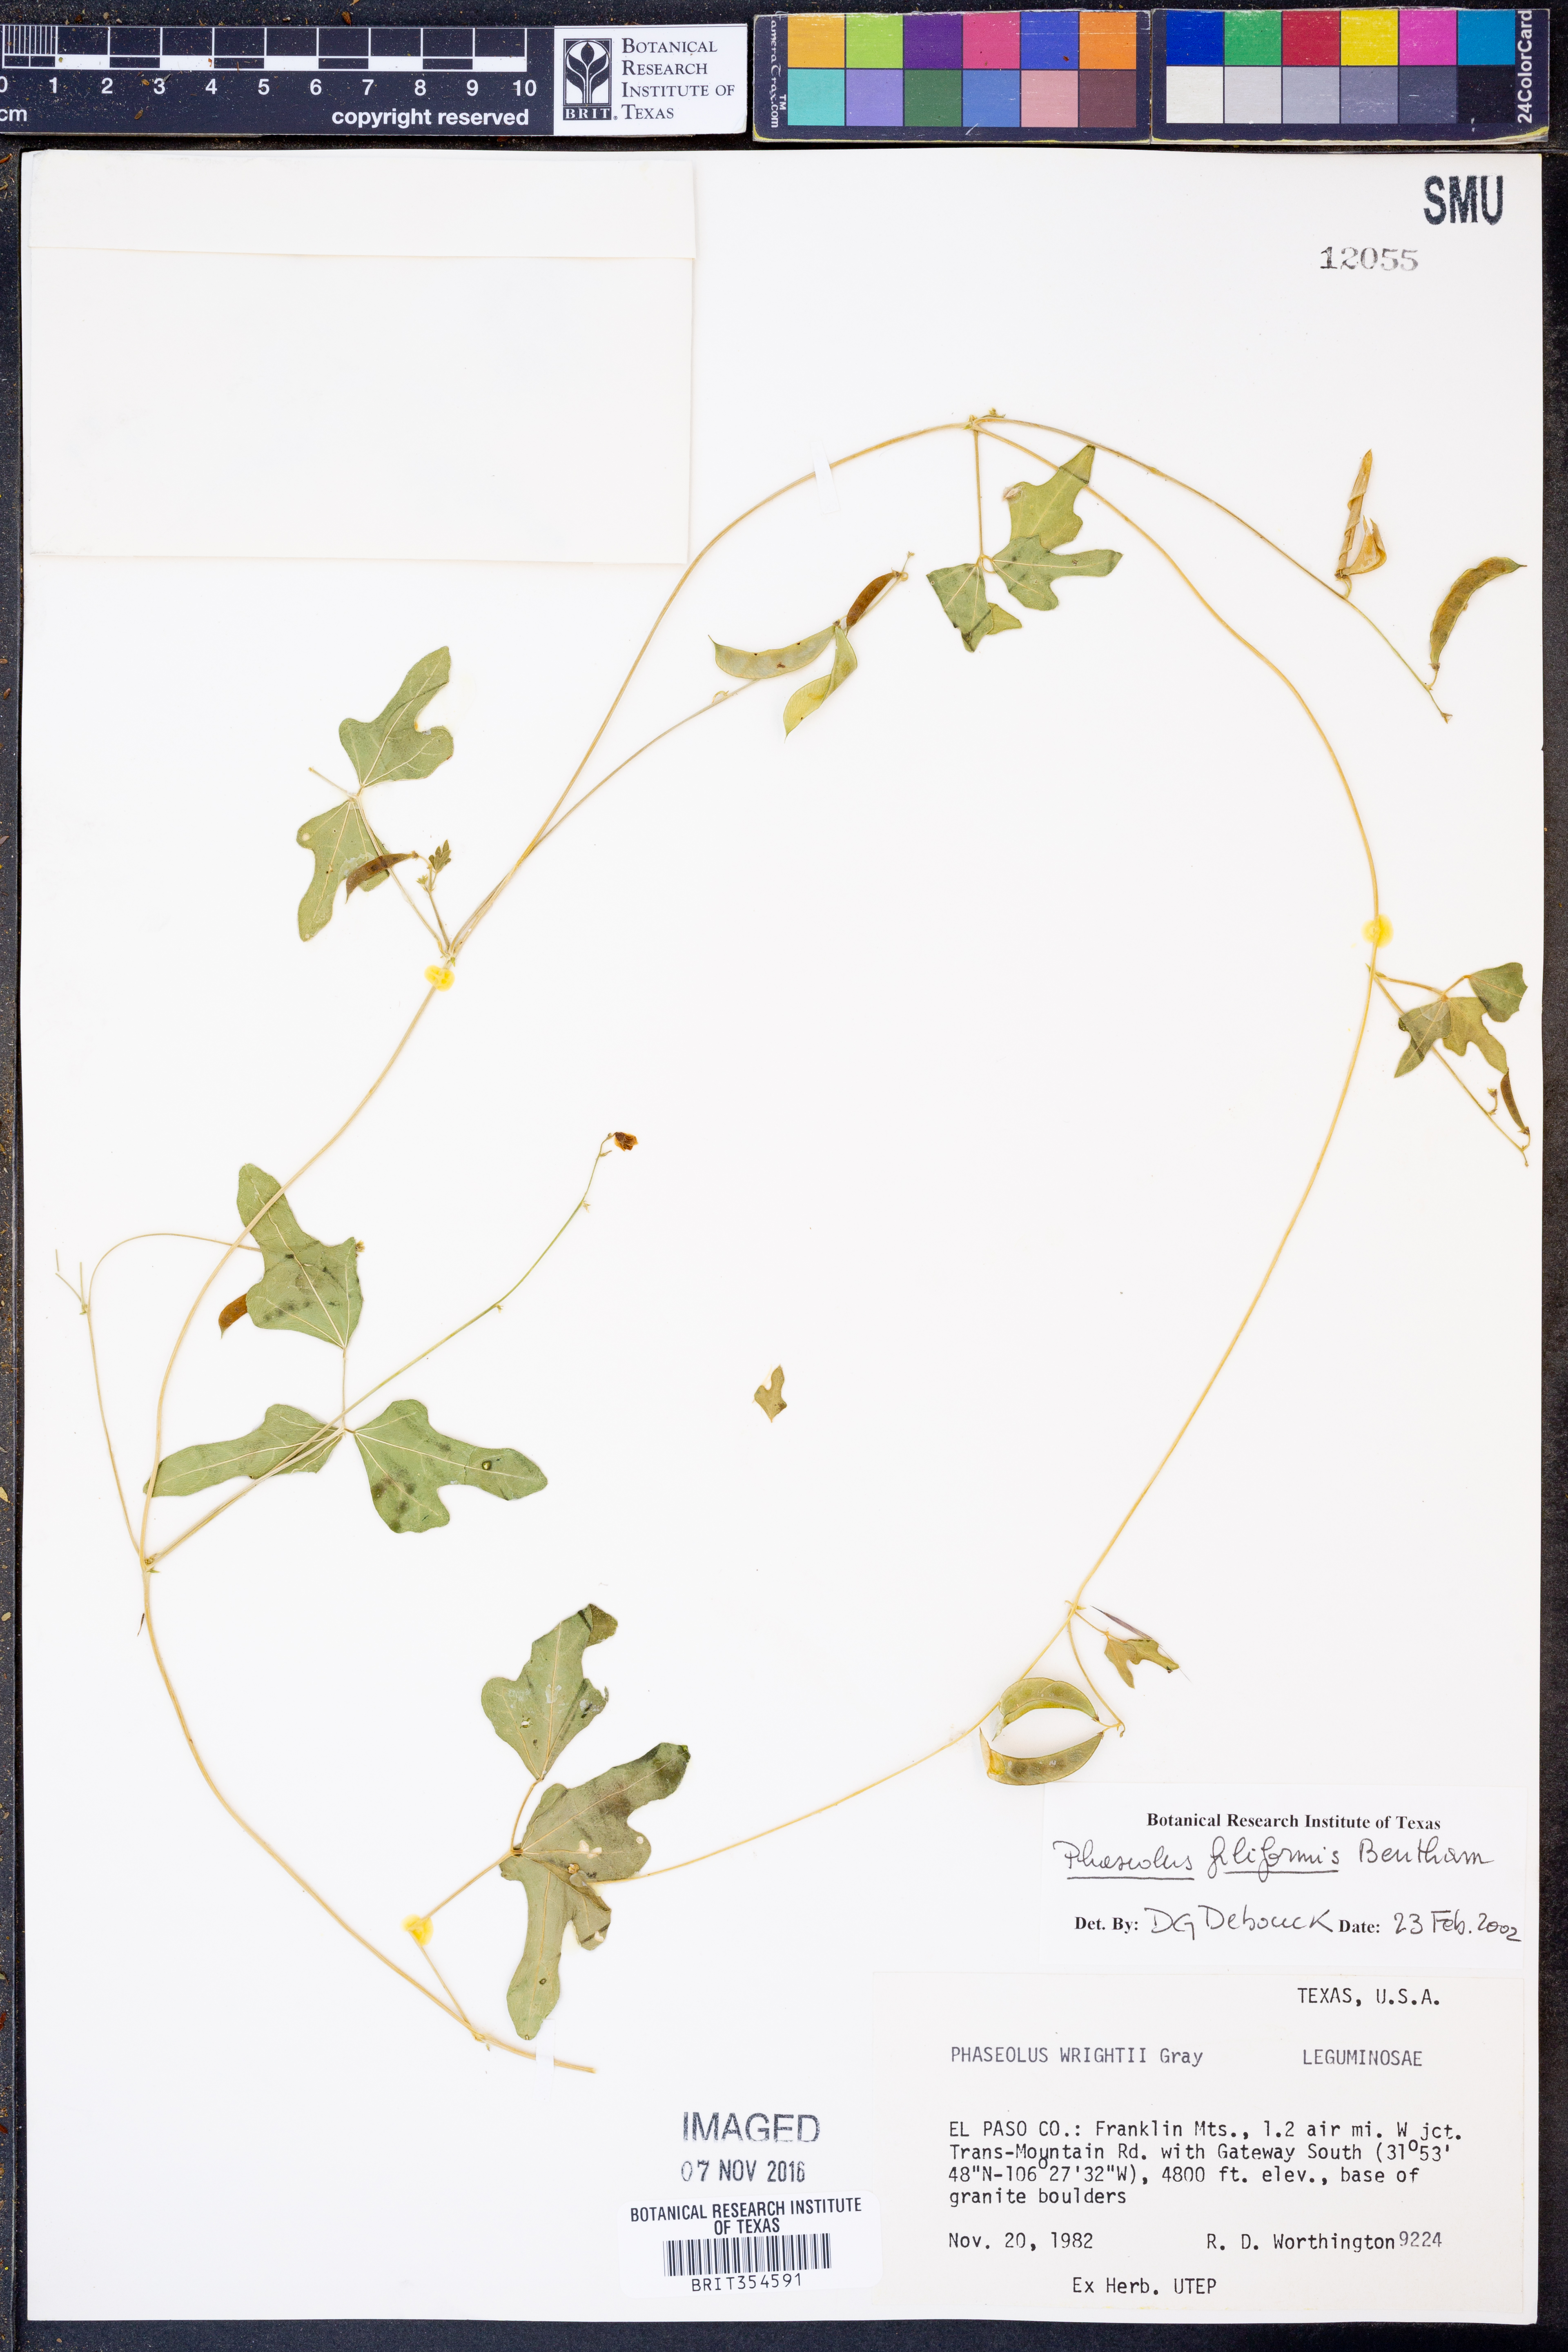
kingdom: Plantae
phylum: Tracheophyta
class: Magnoliopsida
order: Fabales
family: Fabaceae
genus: Phaseolus
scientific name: Phaseolus filiformis
